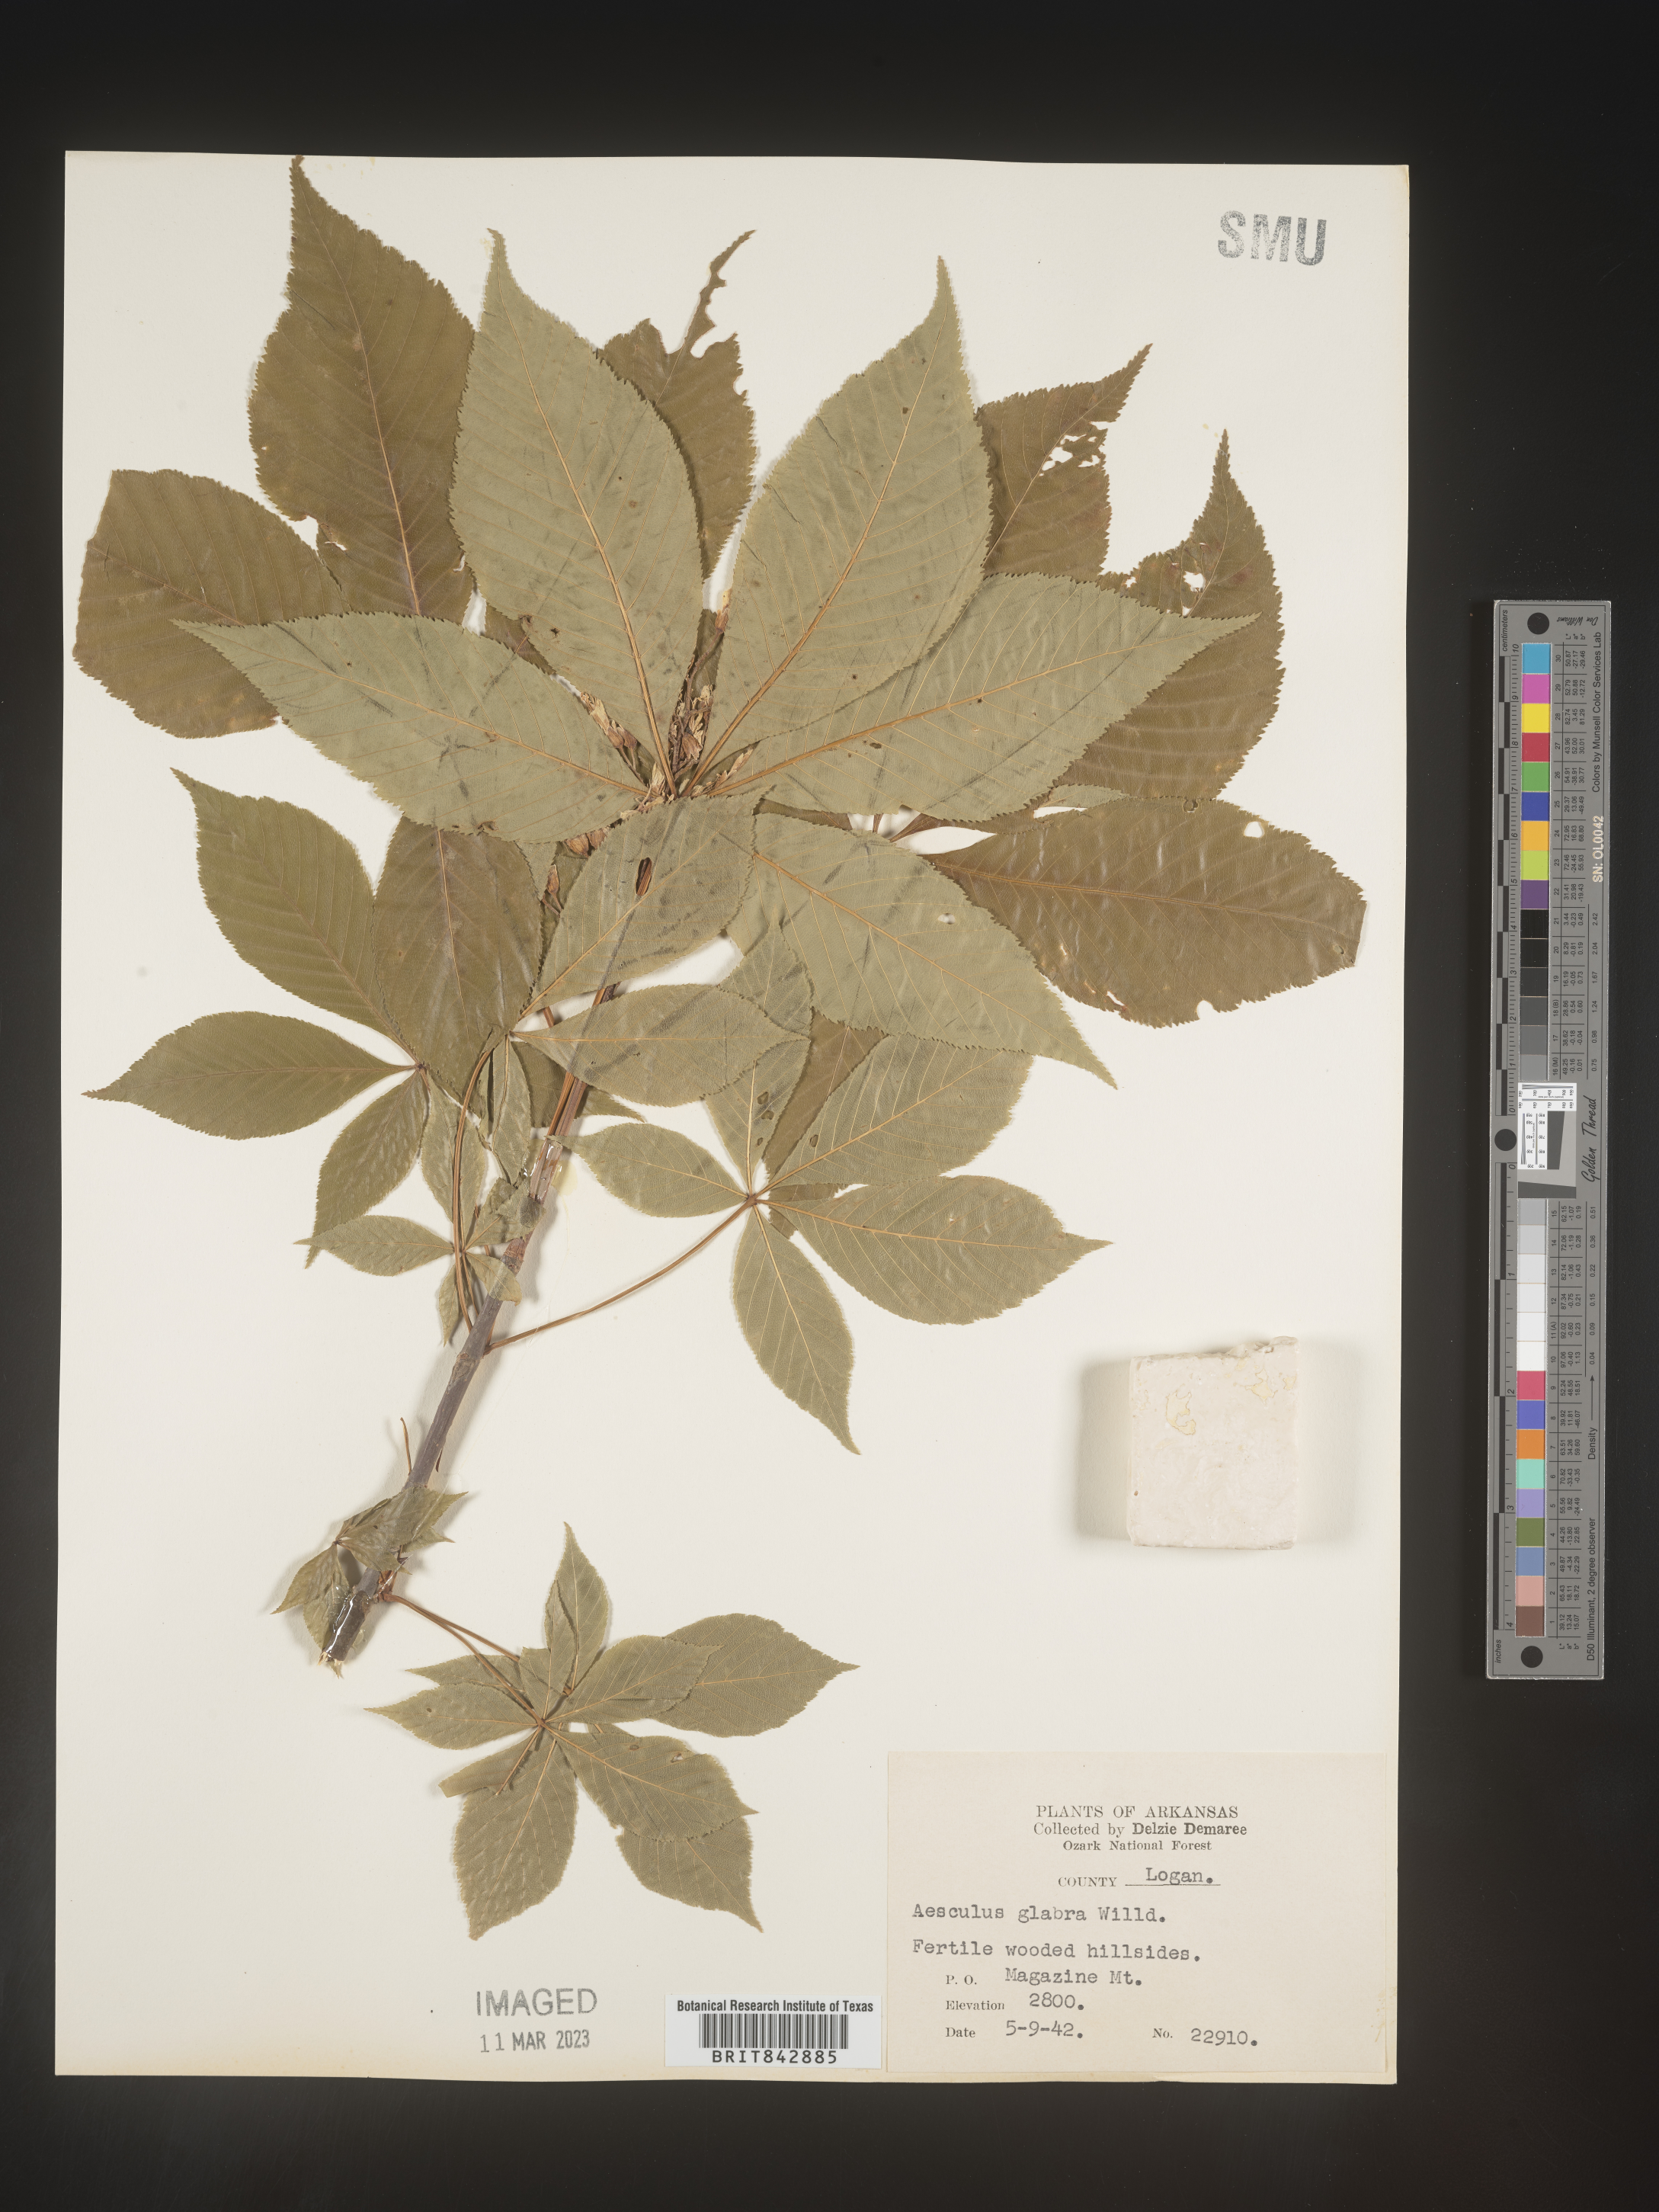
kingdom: Plantae
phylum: Tracheophyta
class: Magnoliopsida
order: Sapindales
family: Sapindaceae
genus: Aesculus
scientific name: Aesculus glabra
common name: Ohio buckeye
